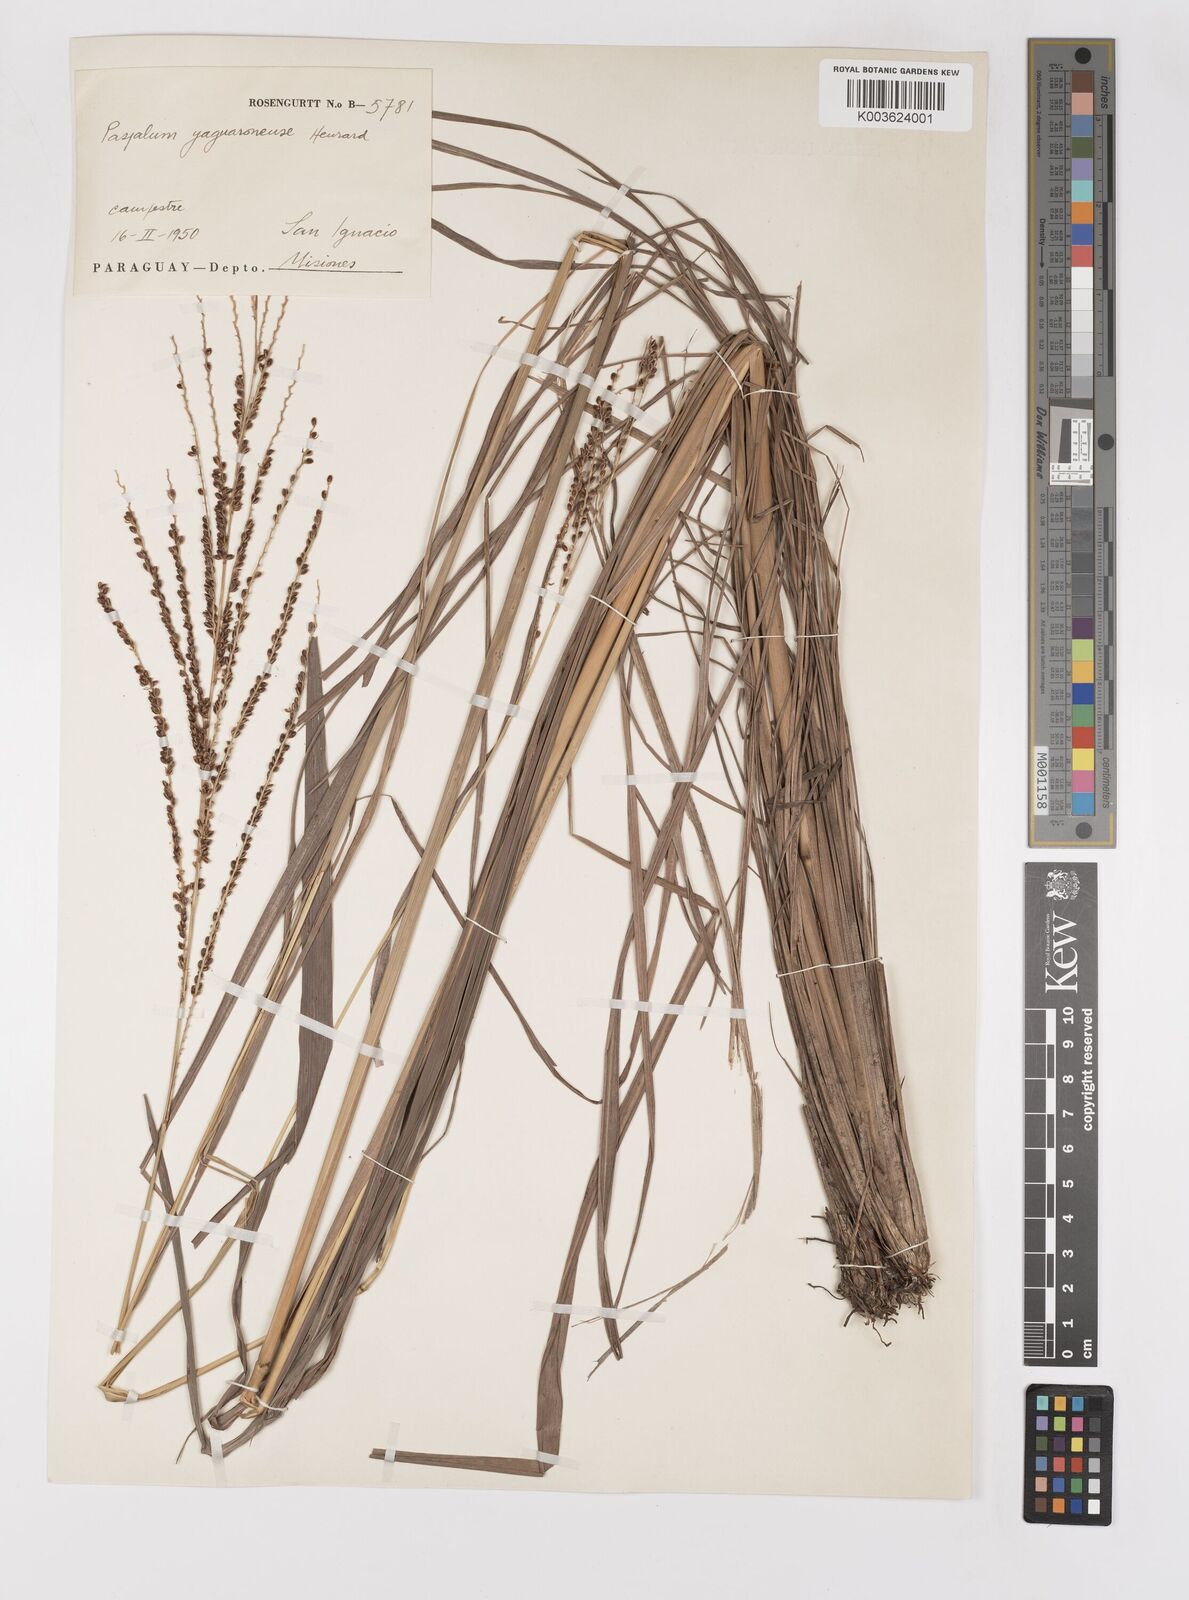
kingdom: Plantae
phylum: Tracheophyta
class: Liliopsida
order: Poales
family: Poaceae
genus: Paspalum
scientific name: Paspalum glaucescens
